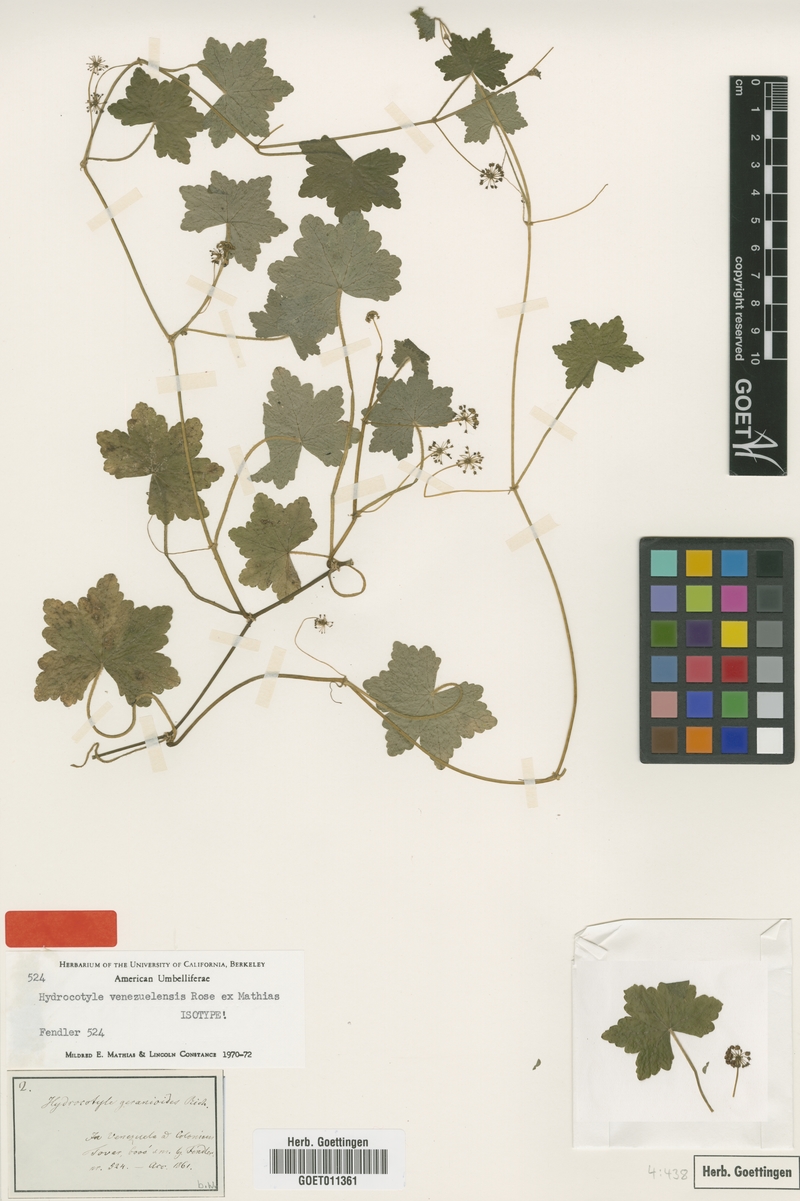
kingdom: Plantae
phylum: Tracheophyta
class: Magnoliopsida
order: Apiales
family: Araliaceae
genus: Hydrocotyle
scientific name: Hydrocotyle venezuelensis
